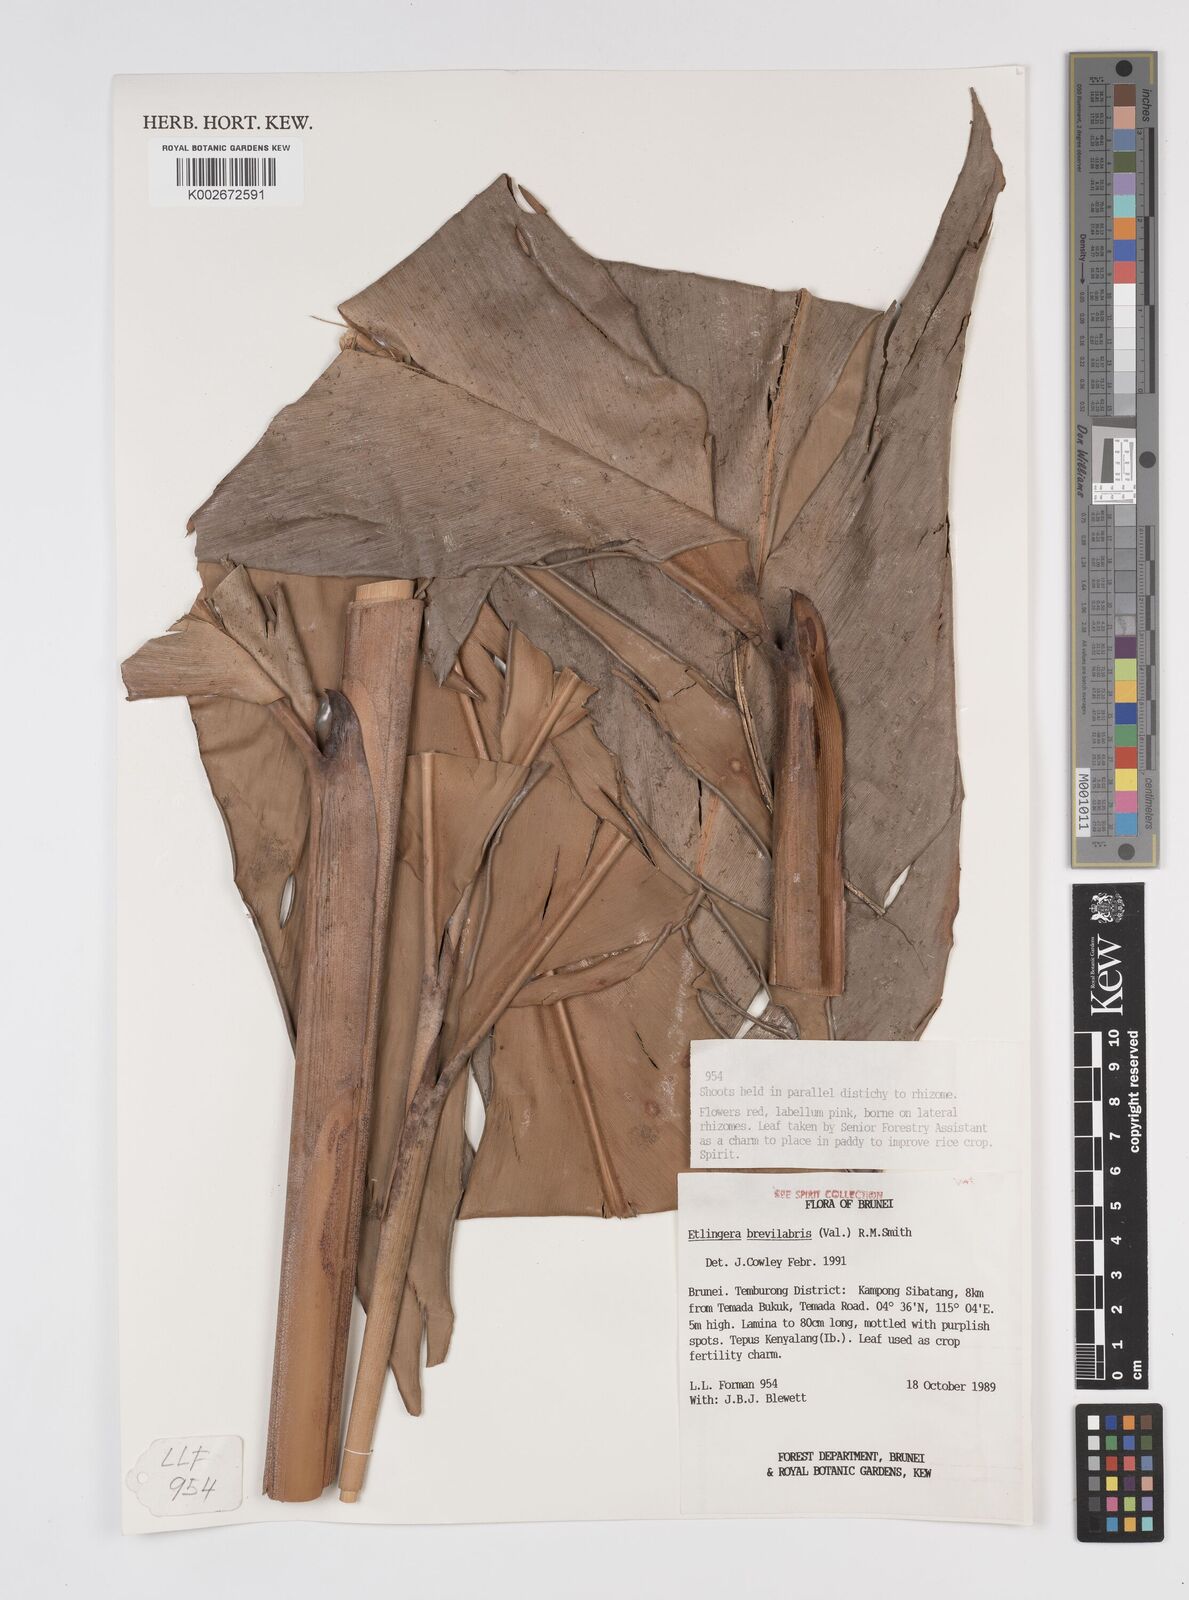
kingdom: Plantae
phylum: Tracheophyta
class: Liliopsida
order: Zingiberales
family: Zingiberaceae
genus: Etlingera
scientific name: Etlingera
